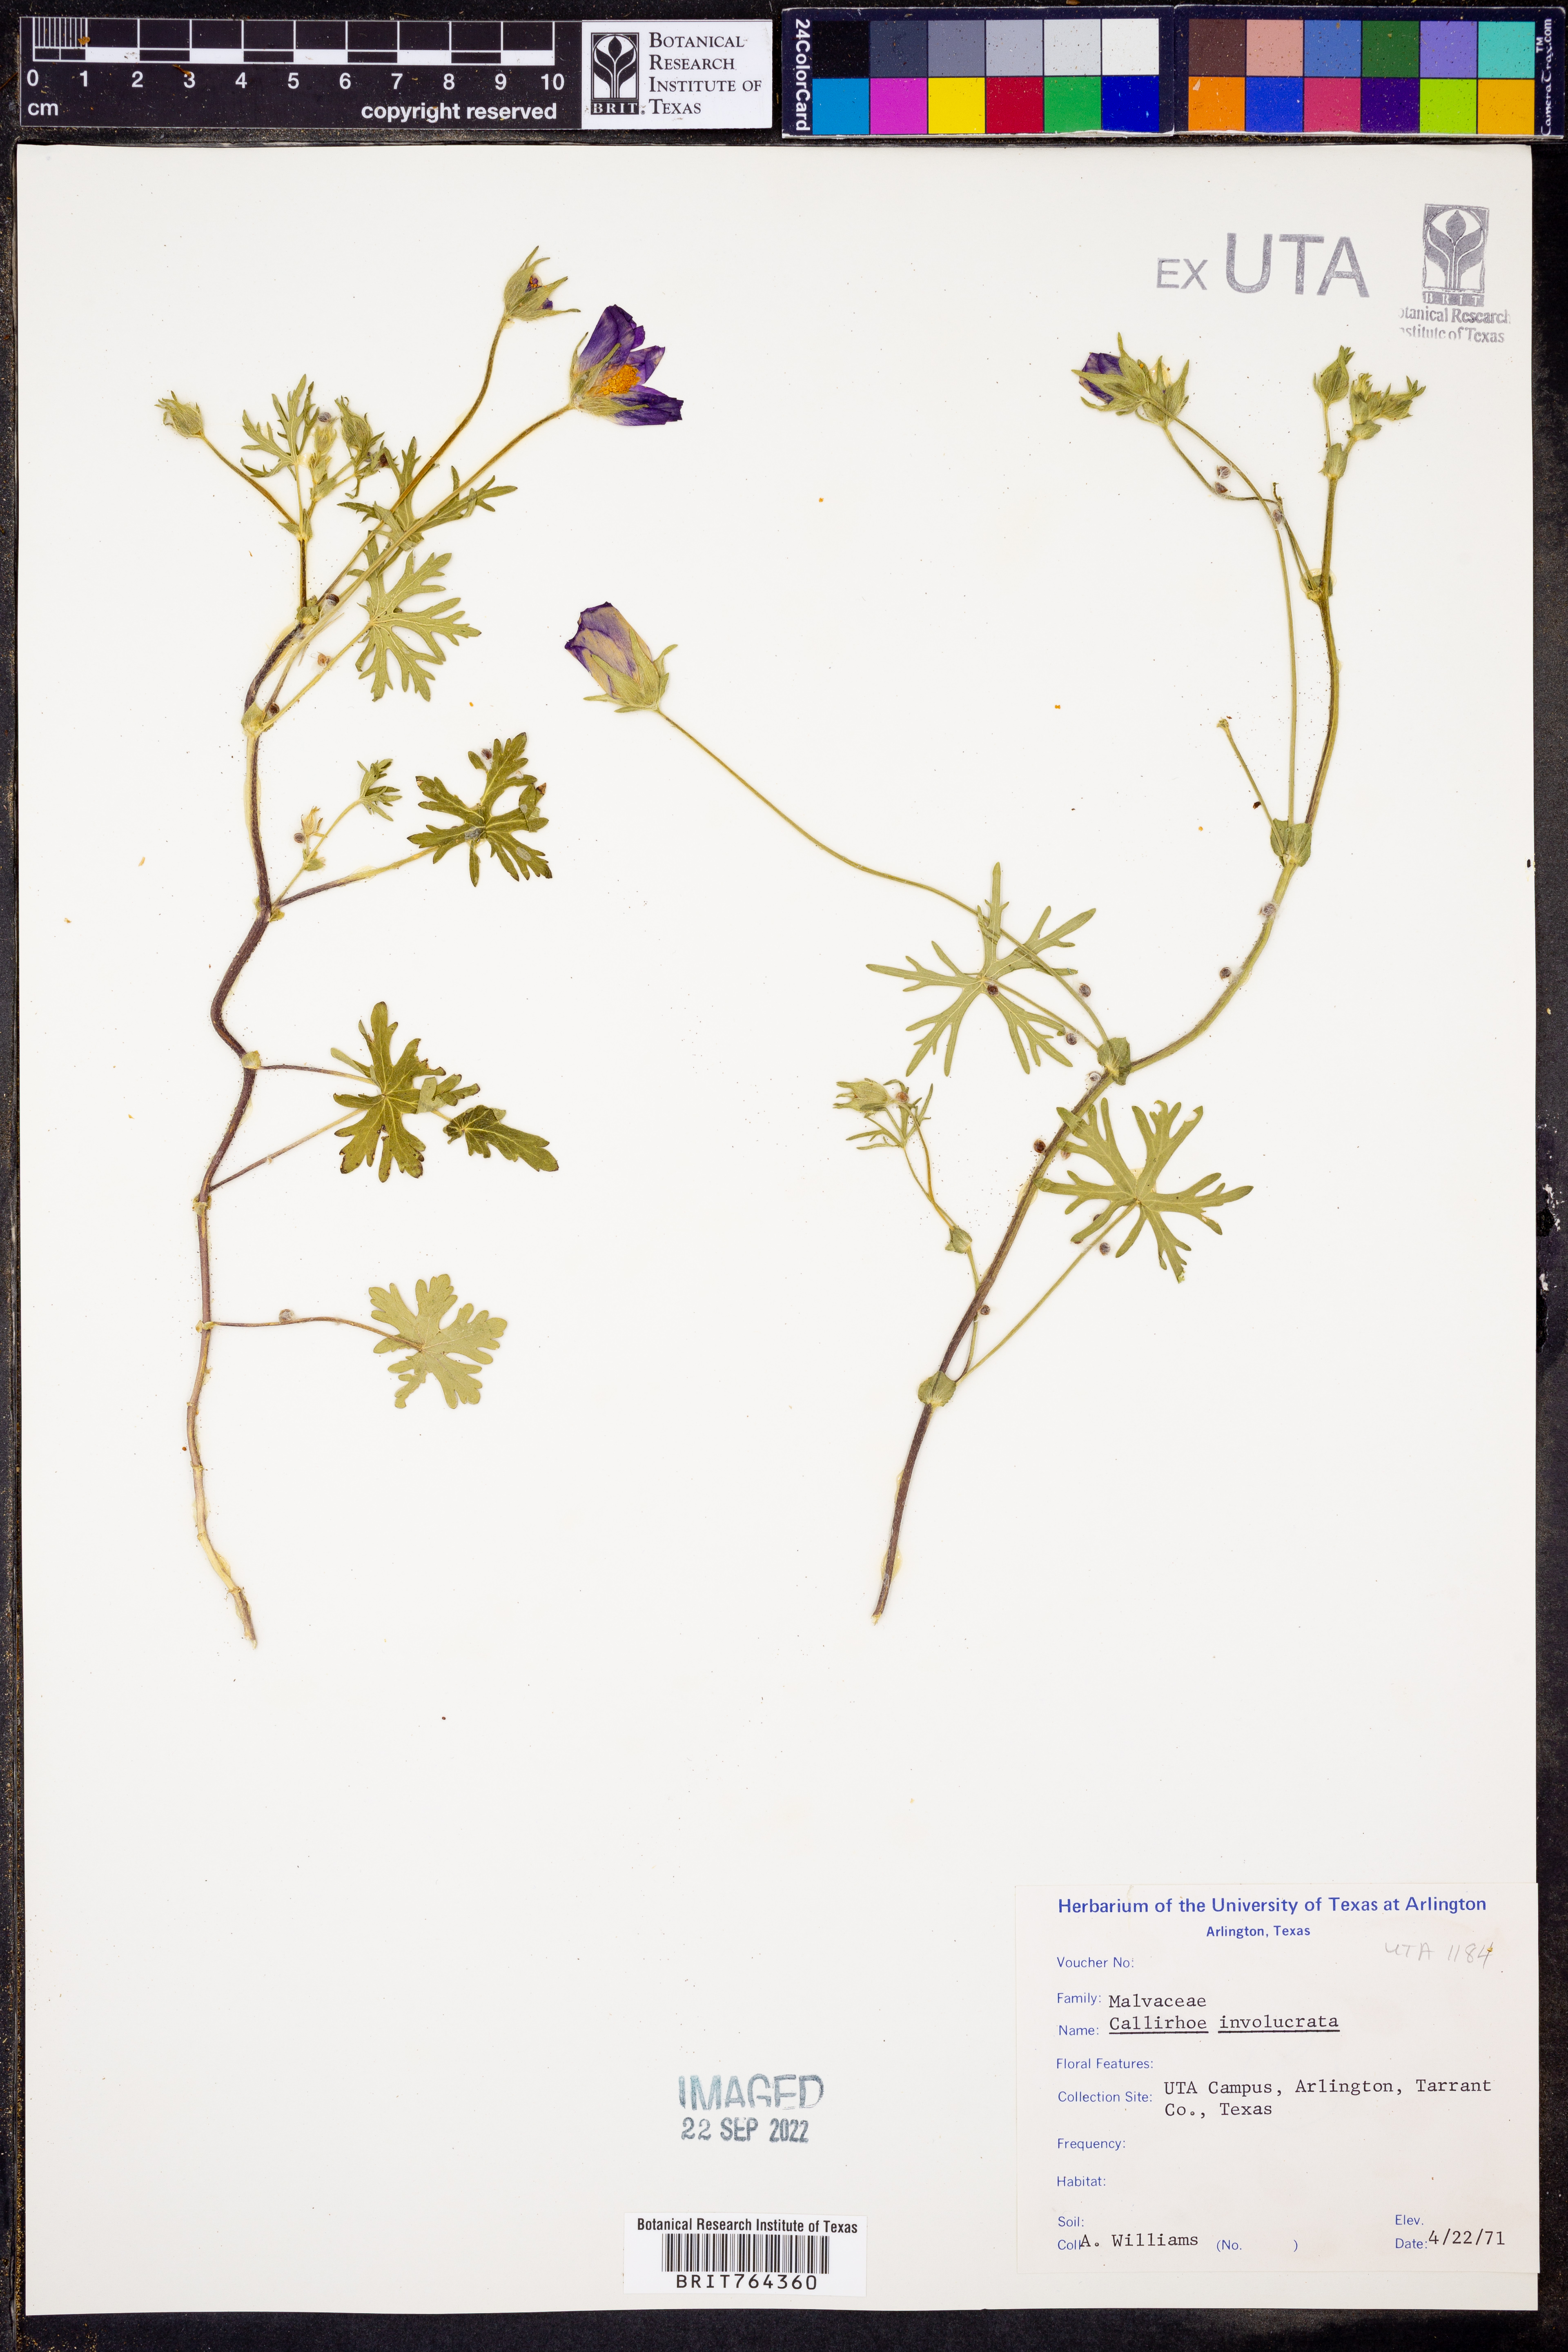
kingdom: Plantae
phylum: Tracheophyta
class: Magnoliopsida
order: Malvales
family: Malvaceae
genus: Callirhoe
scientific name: Callirhoe involucrata
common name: Purple poppy-mallow
